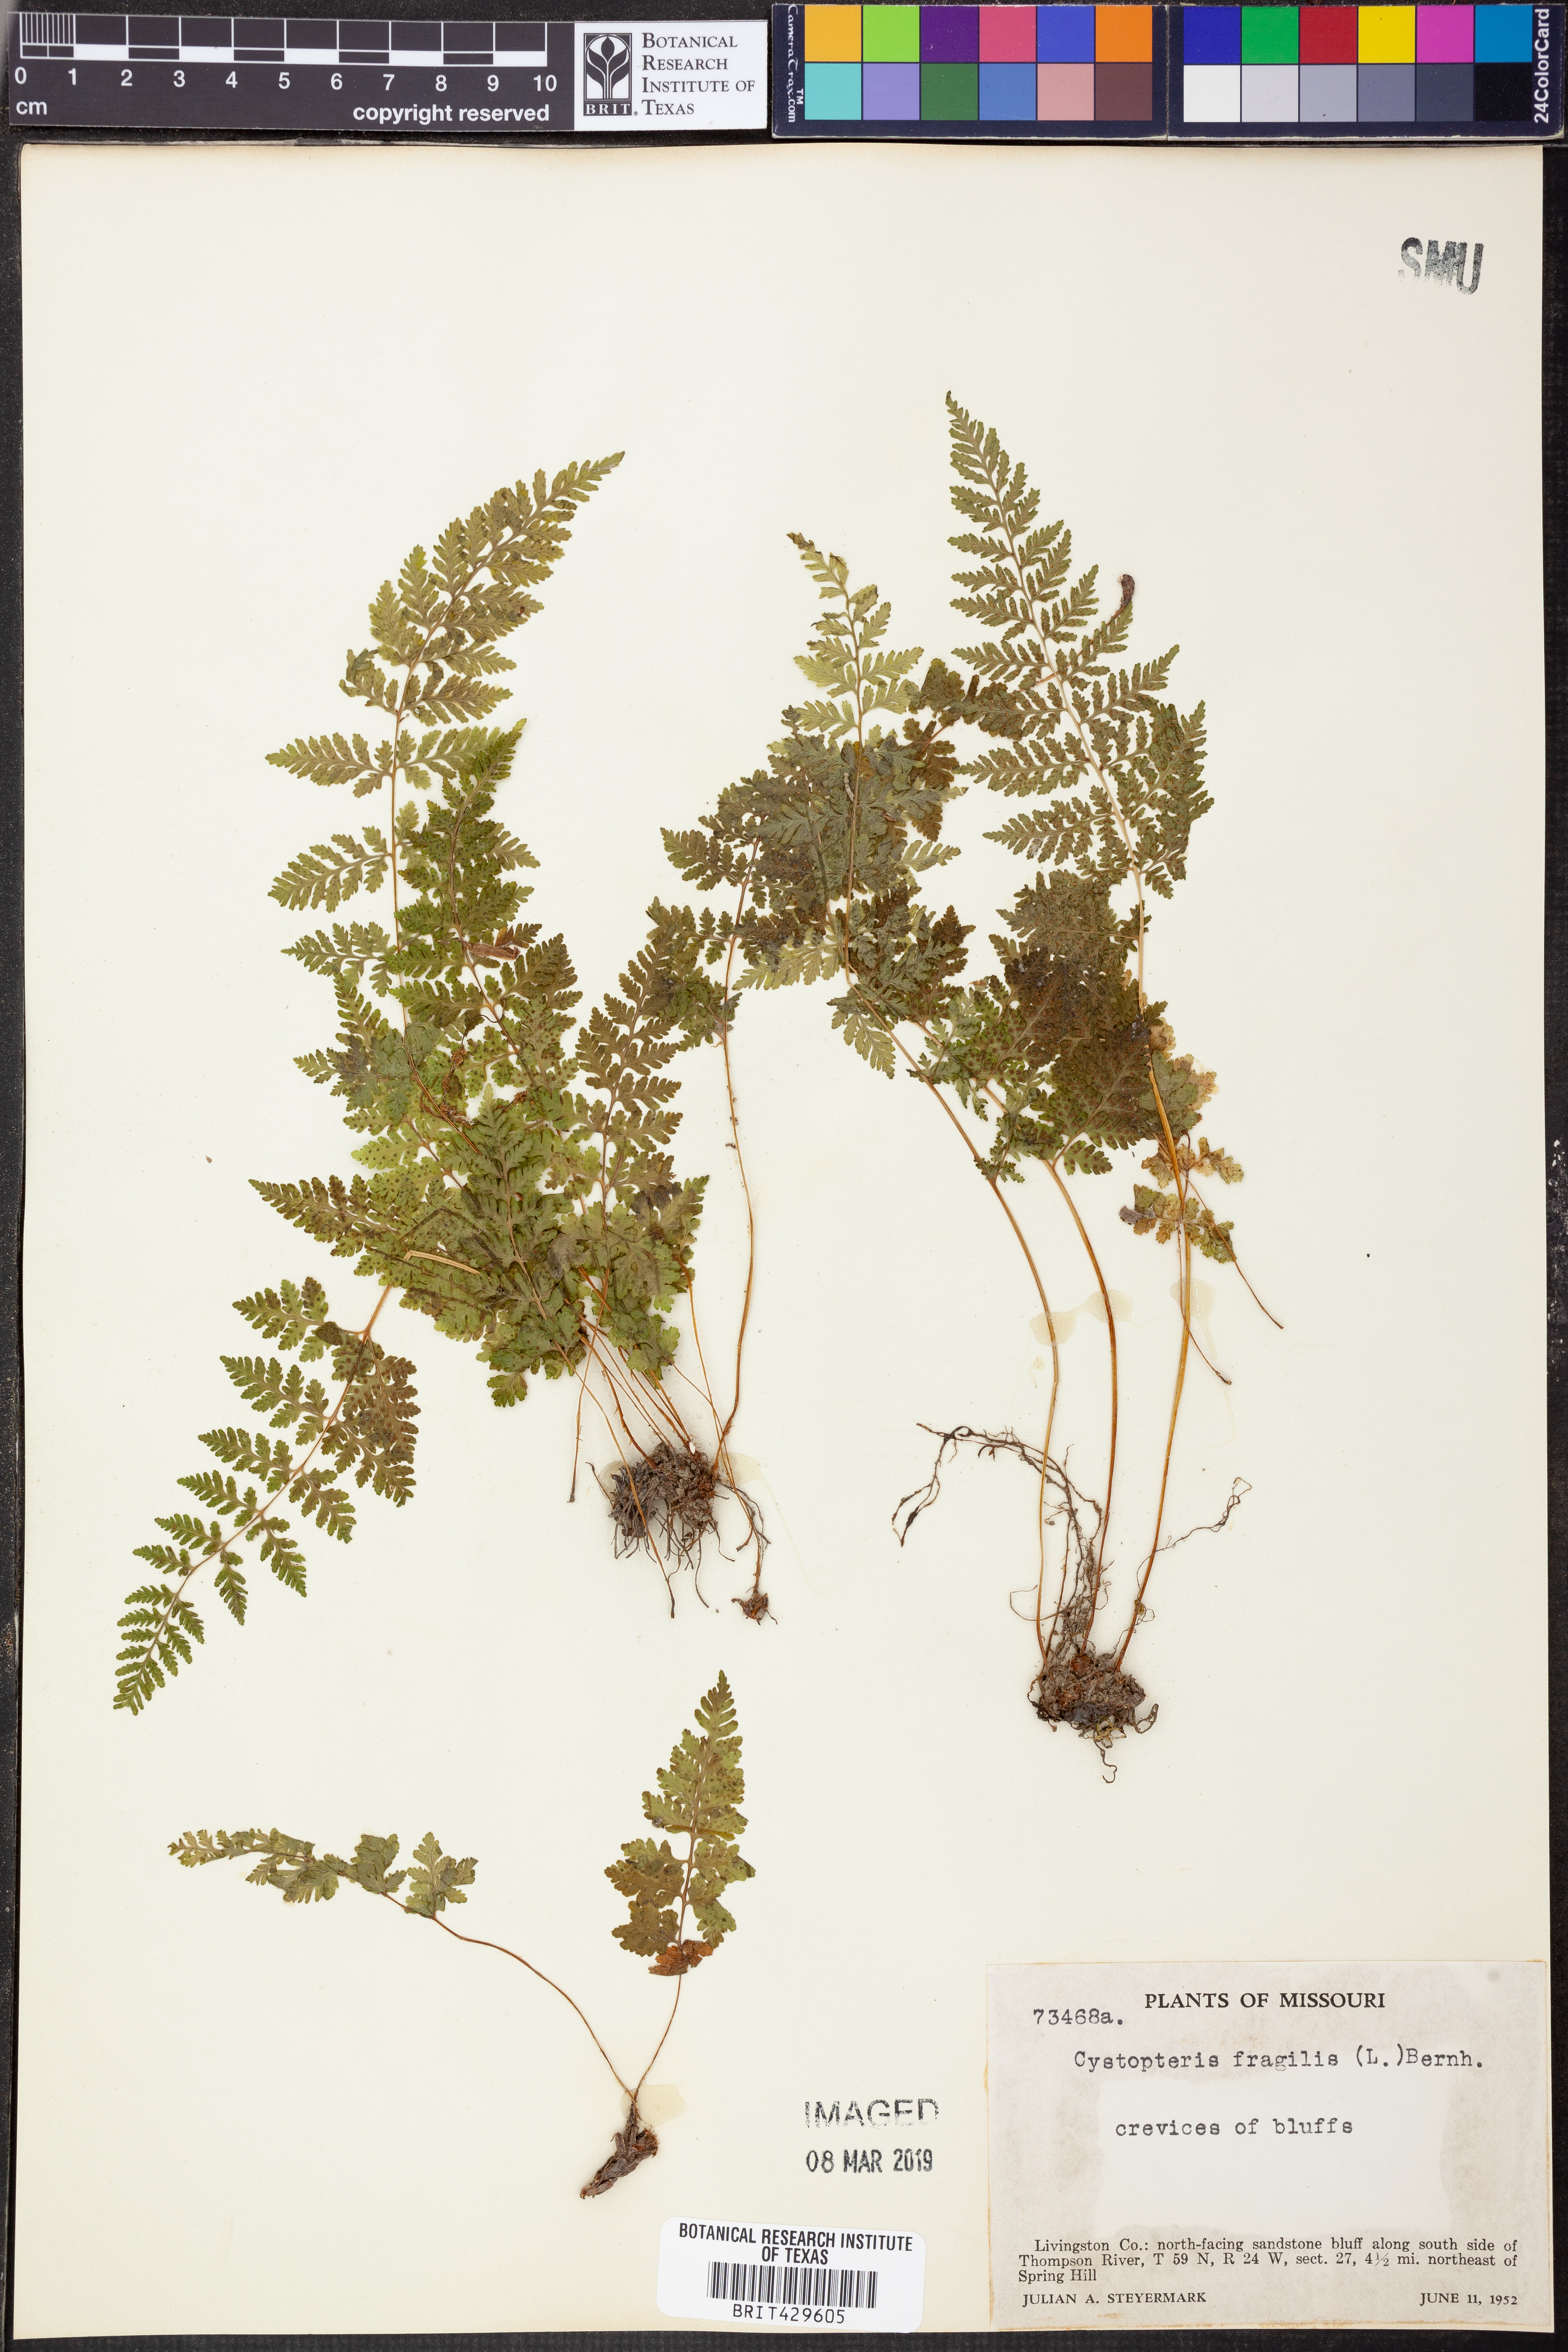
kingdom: Plantae
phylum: Tracheophyta
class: Polypodiopsida
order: Polypodiales
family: Cystopteridaceae
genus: Cystopteris
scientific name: Cystopteris fragilis
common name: Brittle bladder fern
